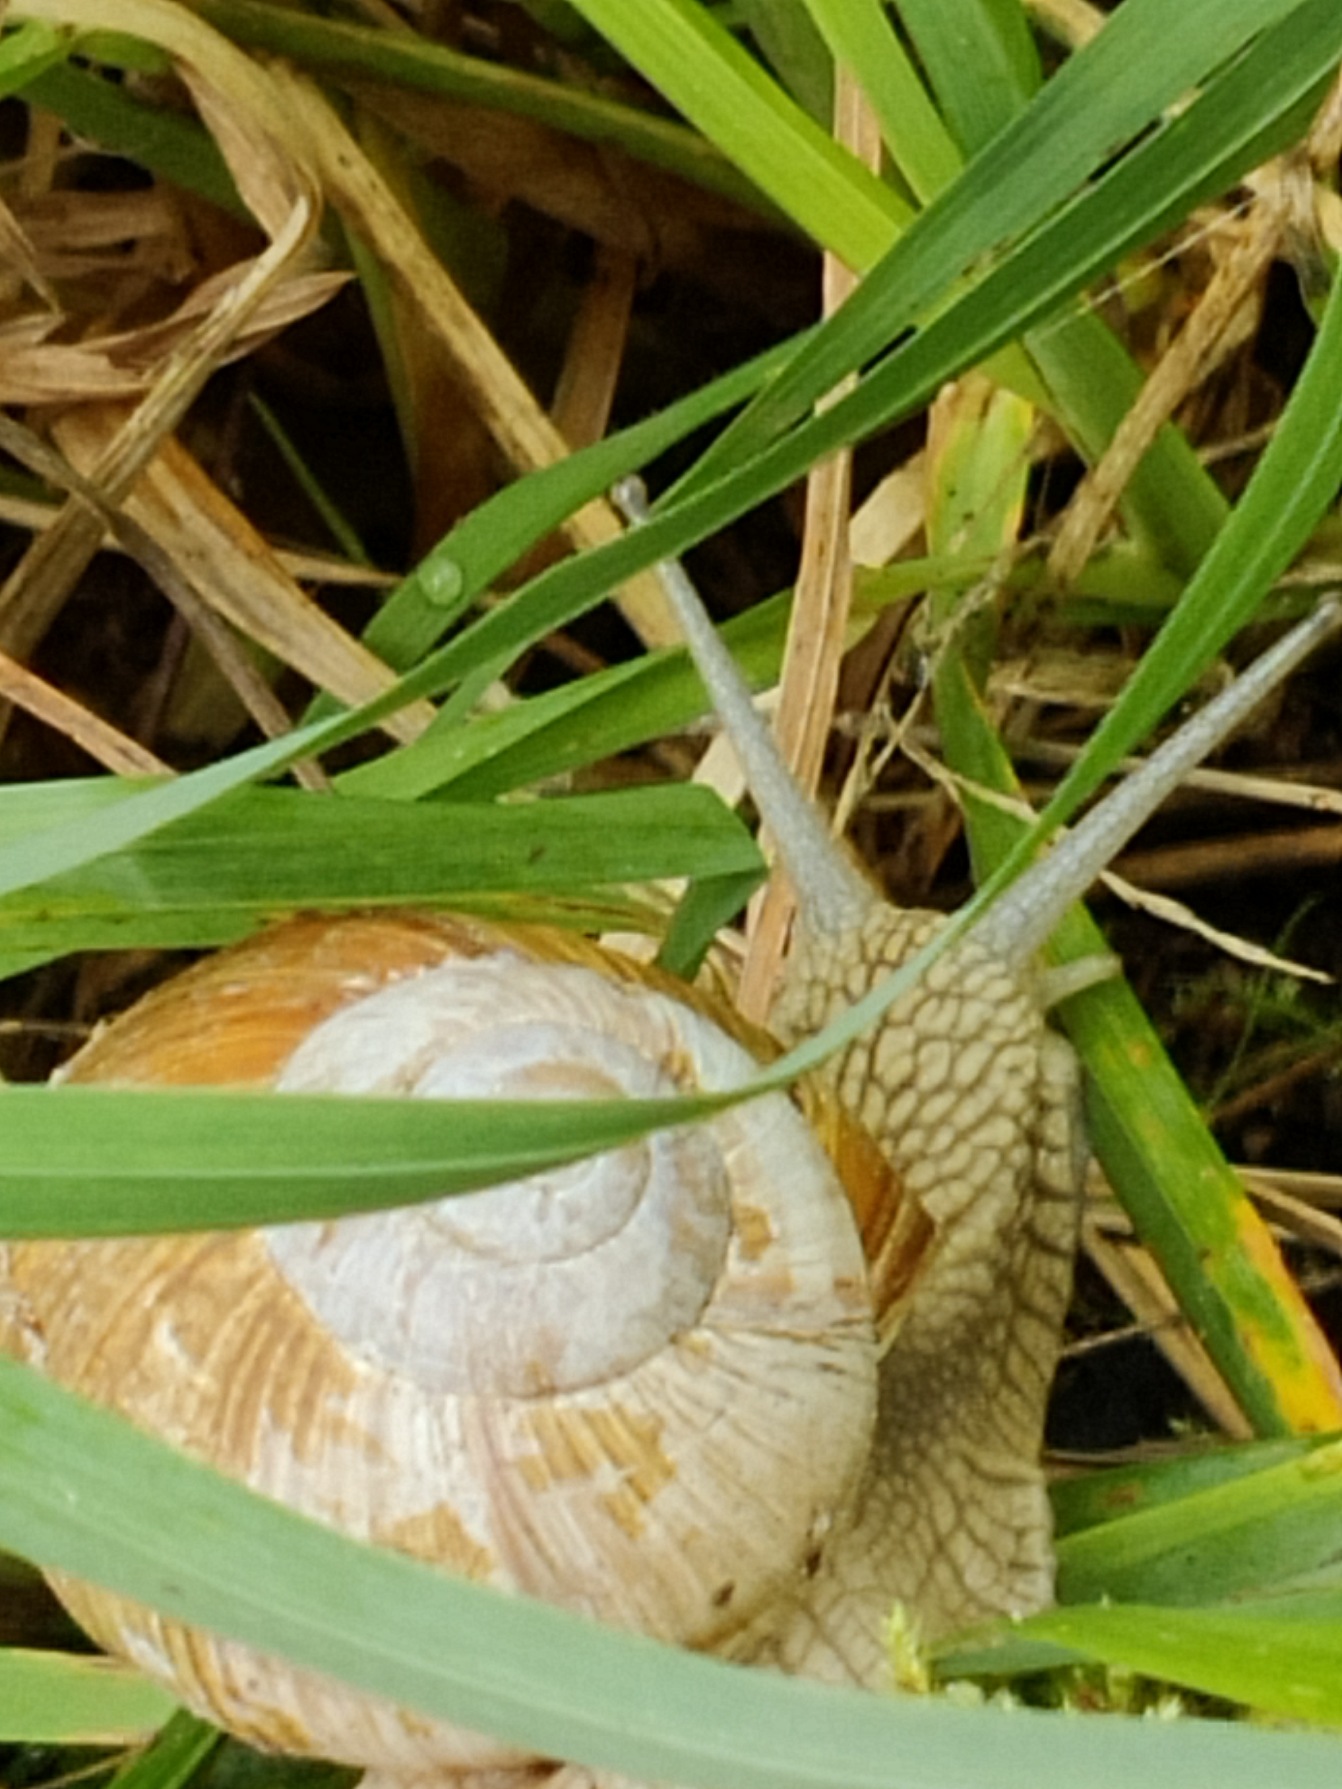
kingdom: Animalia
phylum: Mollusca
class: Gastropoda
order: Stylommatophora
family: Helicidae
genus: Helix
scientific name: Helix pomatia
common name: Vinbjergsnegl
